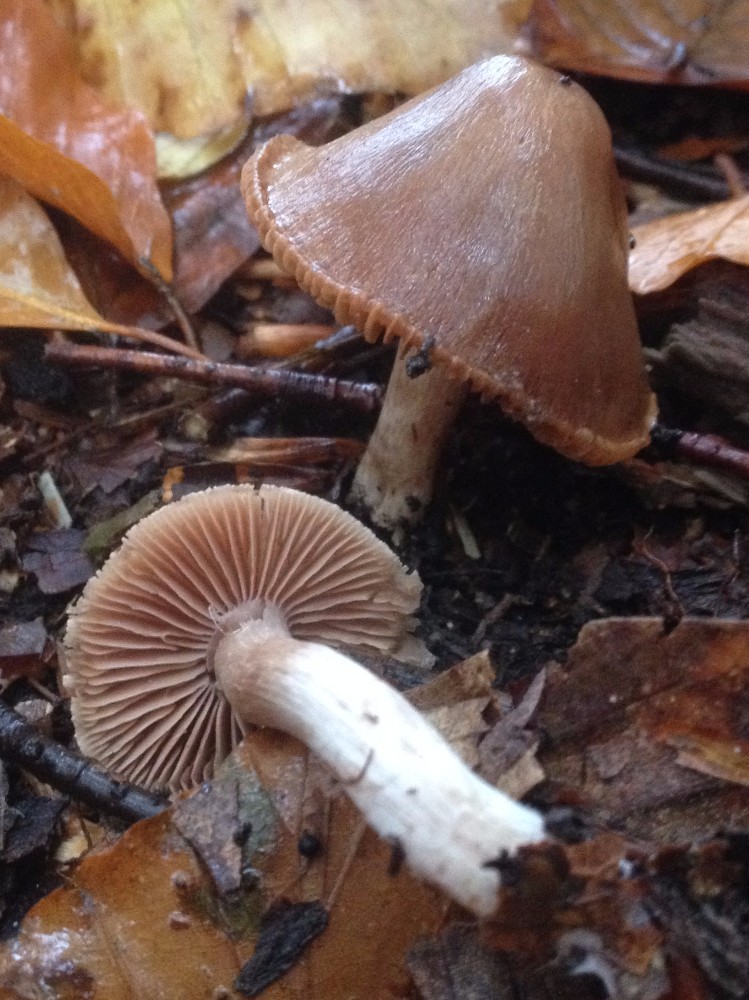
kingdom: Fungi
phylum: Basidiomycota
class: Agaricomycetes
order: Agaricales
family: Cortinariaceae
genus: Cortinarius
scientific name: Cortinarius
